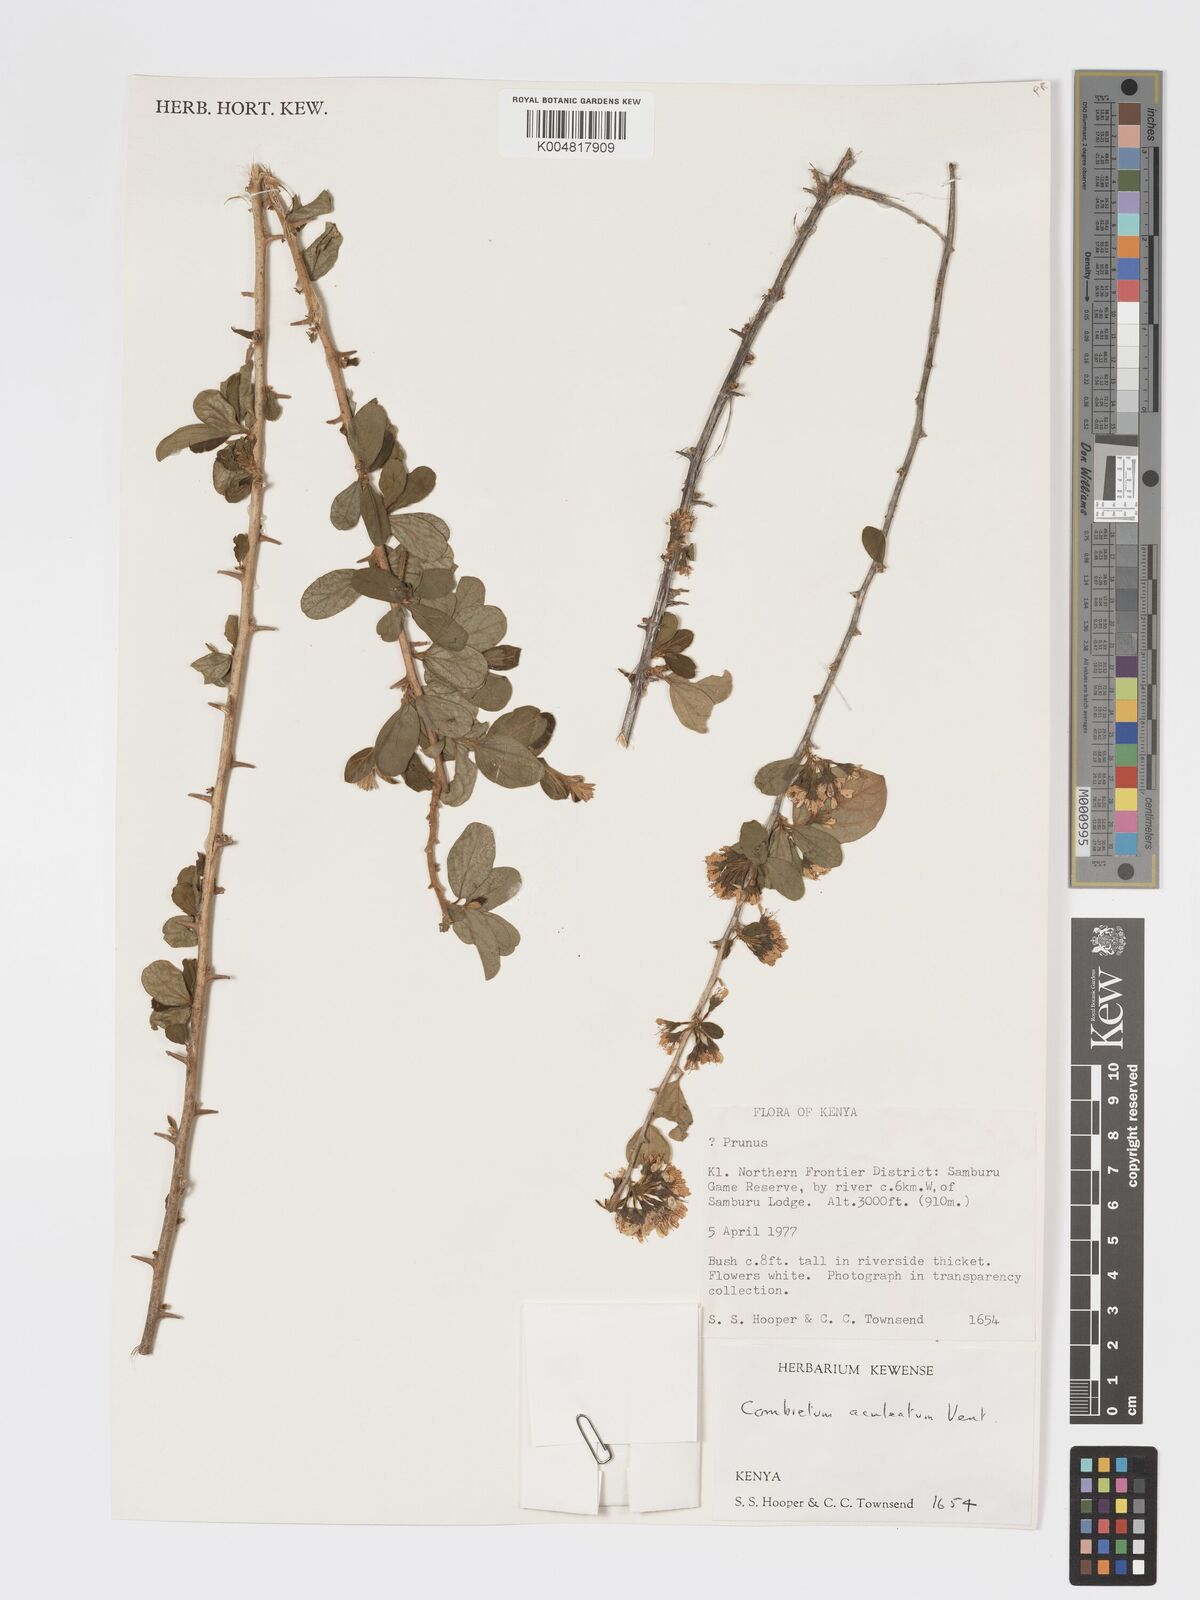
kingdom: Plantae
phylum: Tracheophyta
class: Magnoliopsida
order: Myrtales
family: Combretaceae
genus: Combretum
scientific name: Combretum aculeatum
